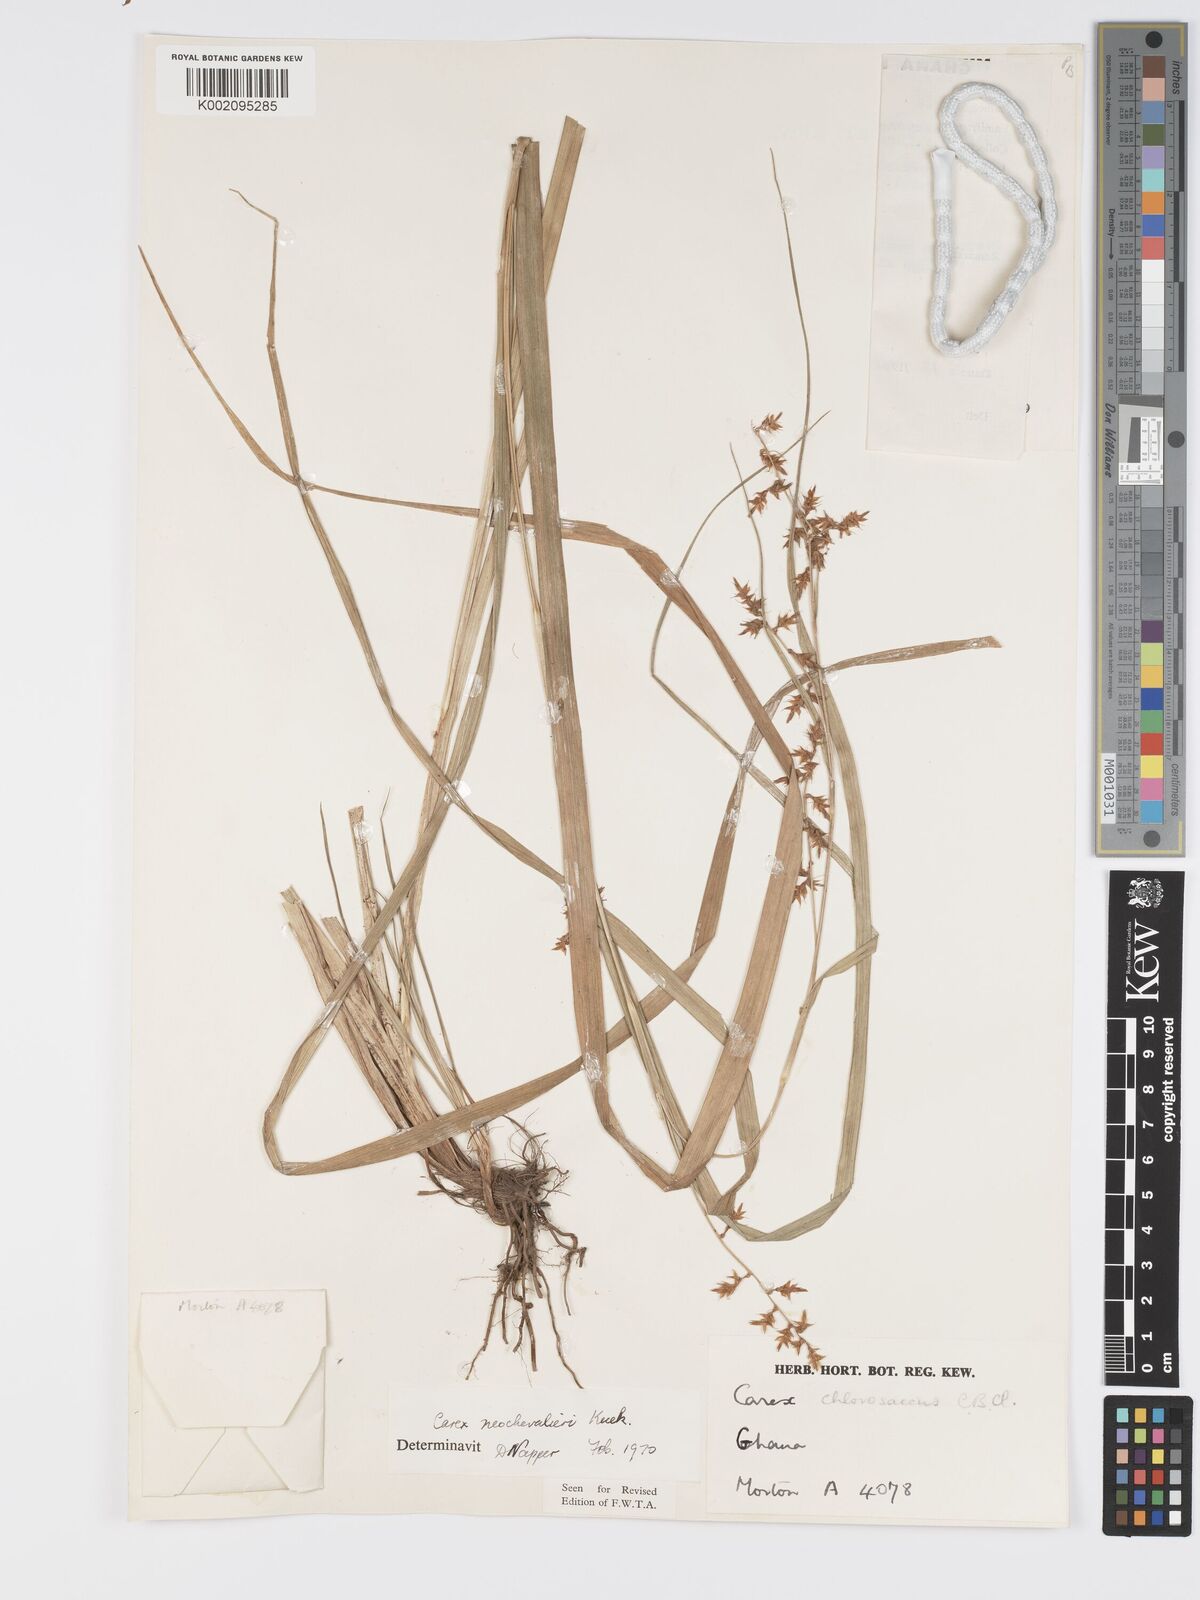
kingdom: Plantae
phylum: Tracheophyta
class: Liliopsida
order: Poales
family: Cyperaceae
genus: Carex
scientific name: Carex neochevalieri
